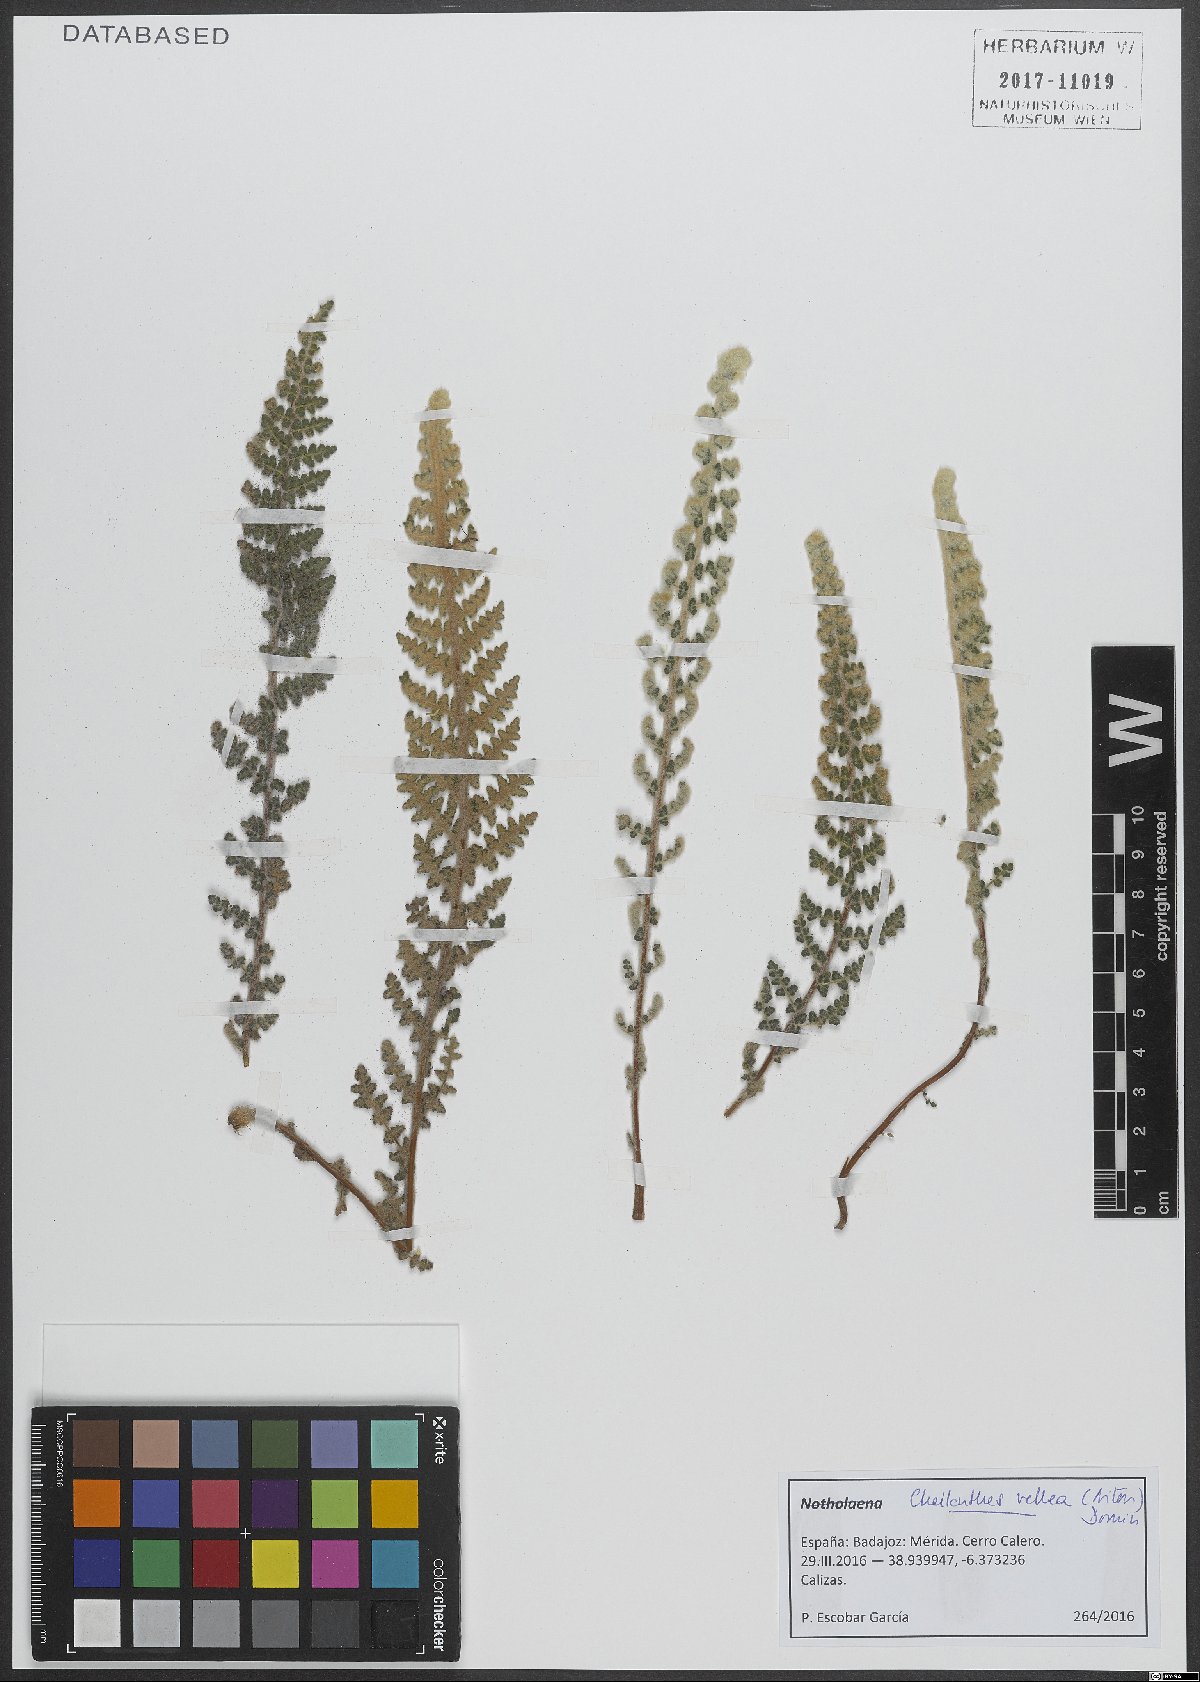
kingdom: Plantae
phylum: Tracheophyta
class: Polypodiopsida
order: Polypodiales
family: Pteridaceae
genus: Cosentinia
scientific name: Cosentinia vellea
